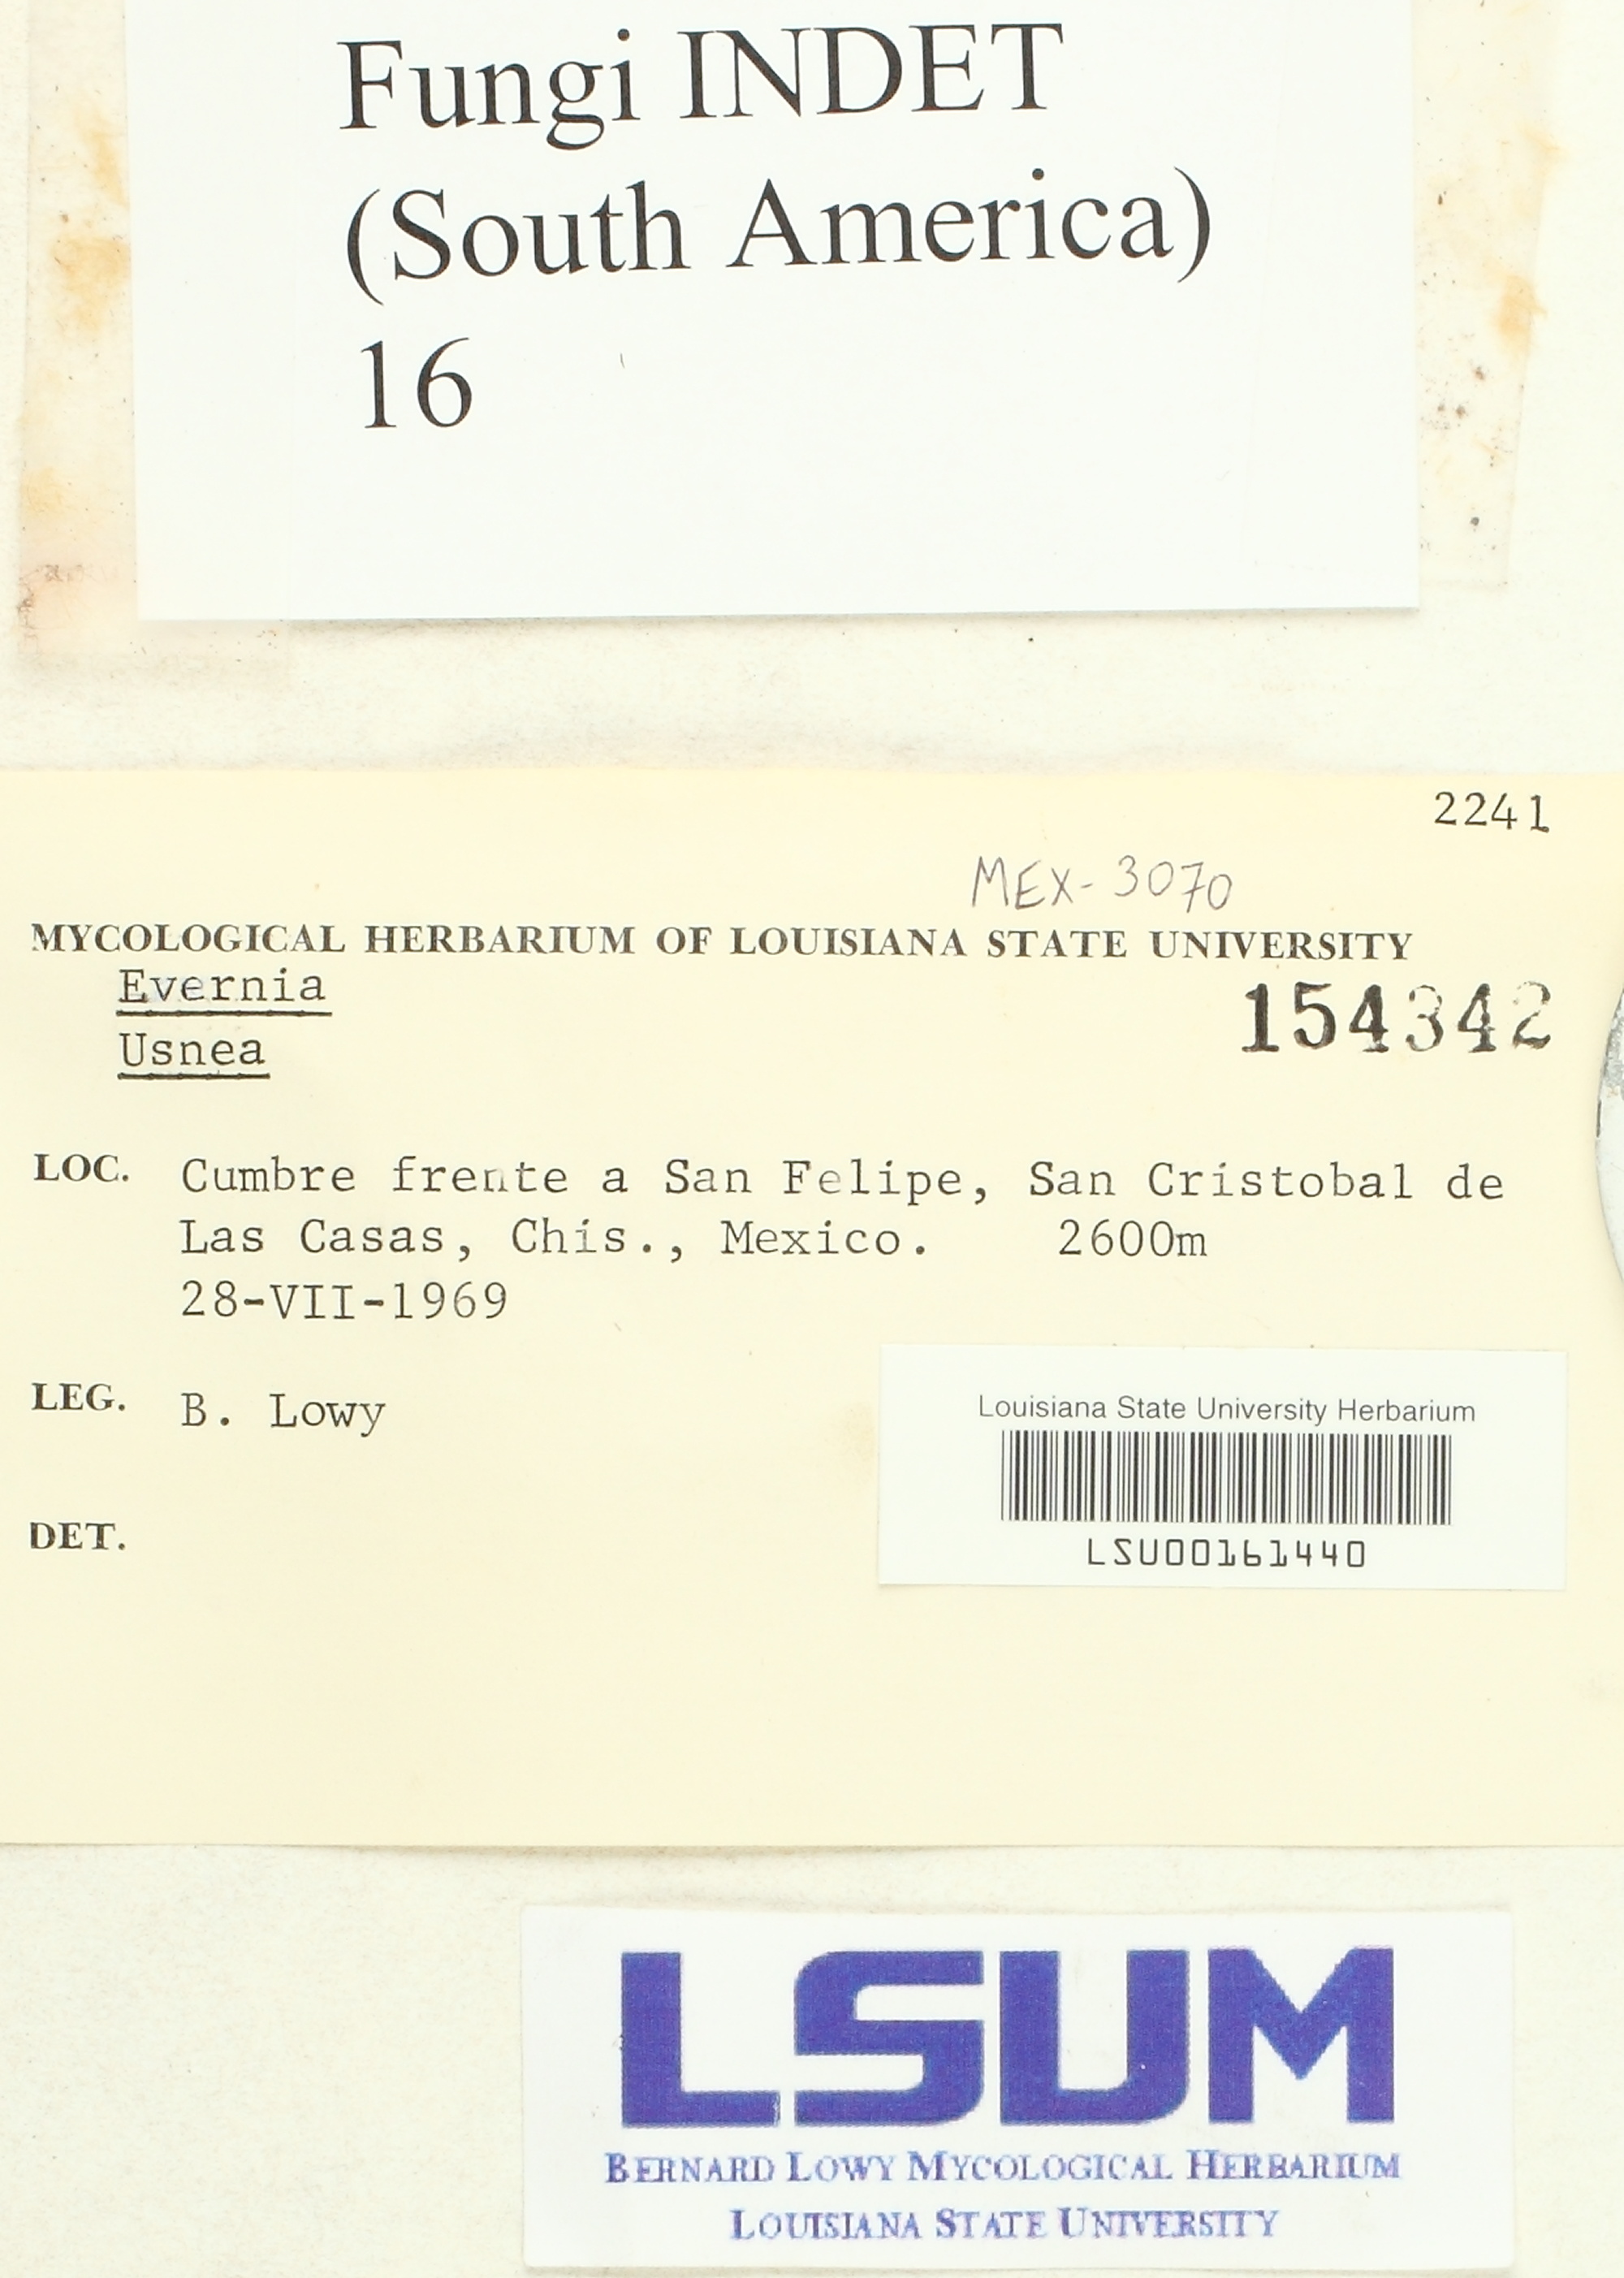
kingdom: Fungi
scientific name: Fungi
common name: Fungi
